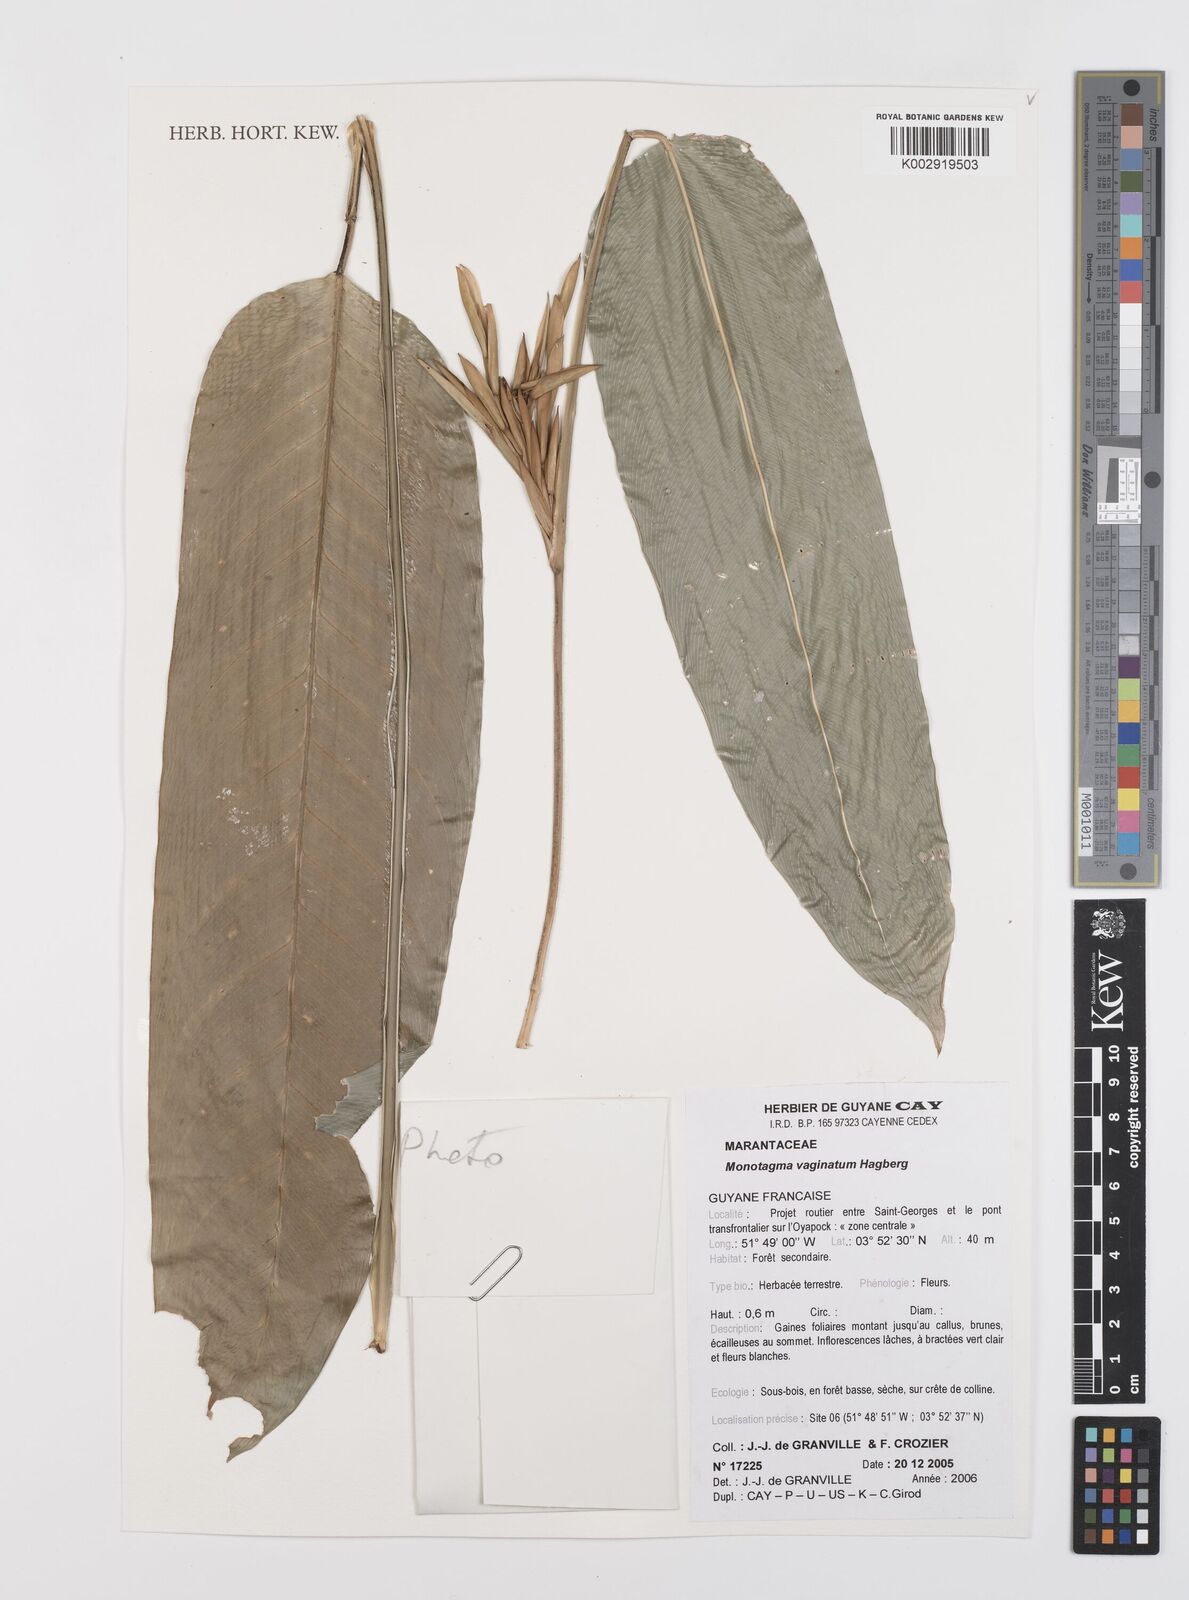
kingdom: Plantae
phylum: Tracheophyta
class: Liliopsida
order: Zingiberales
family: Marantaceae
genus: Monotagma
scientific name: Monotagma vaginatum
